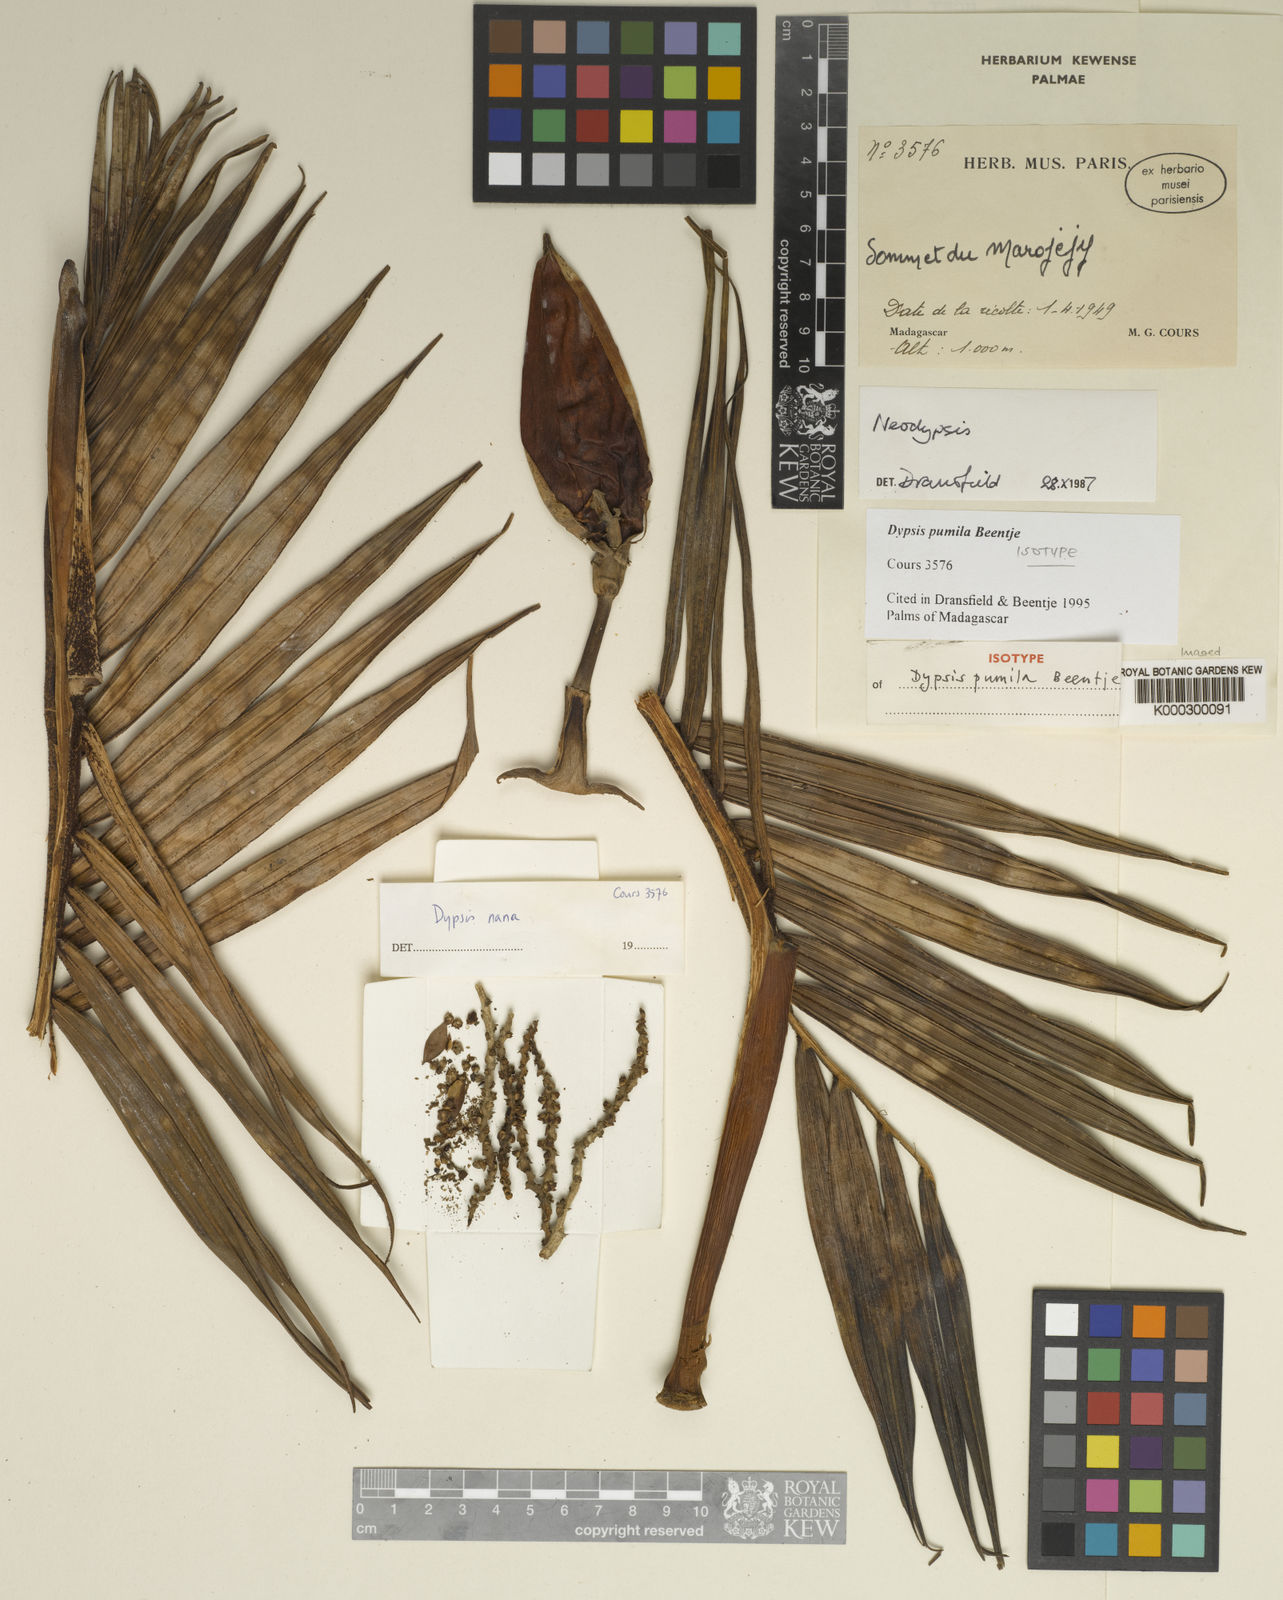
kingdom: Plantae
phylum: Tracheophyta
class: Liliopsida
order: Arecales
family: Arecaceae
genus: Dypsis
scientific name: Dypsis pumila
